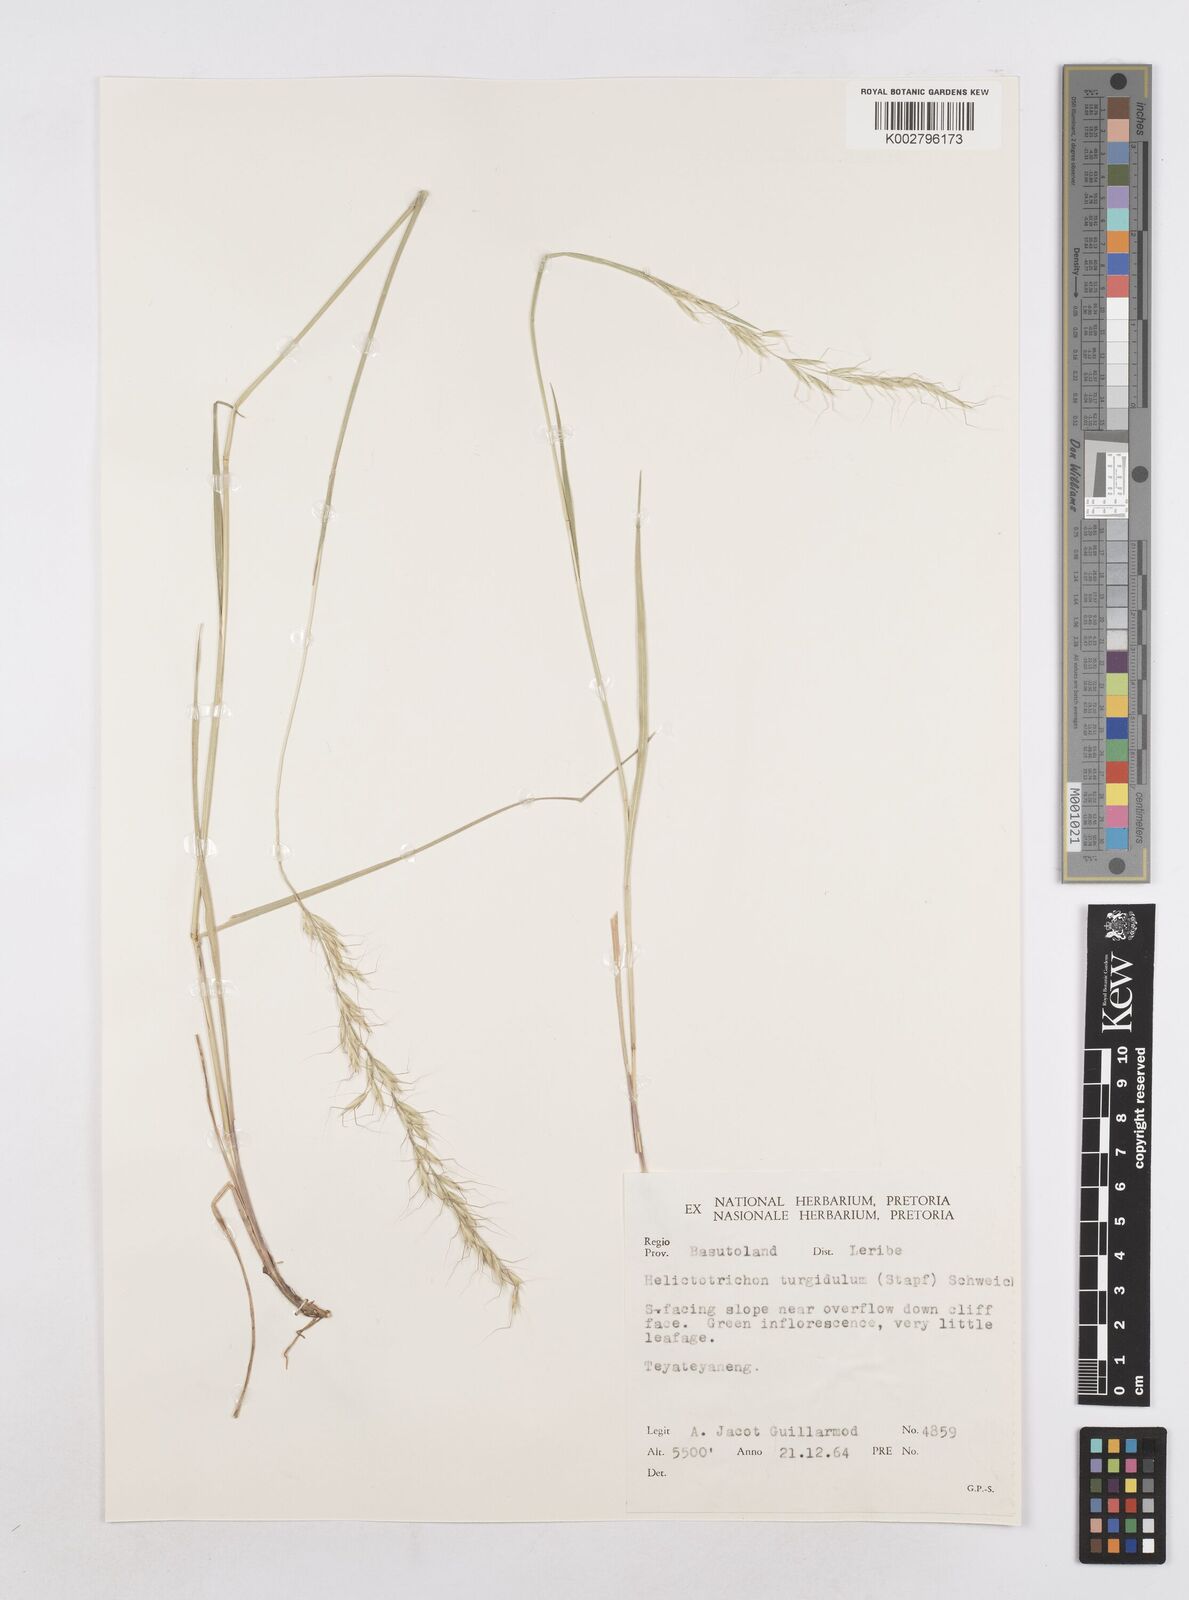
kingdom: Plantae
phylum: Tracheophyta
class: Liliopsida
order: Poales
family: Poaceae
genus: Trisetopsis
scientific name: Trisetopsis imberbis
